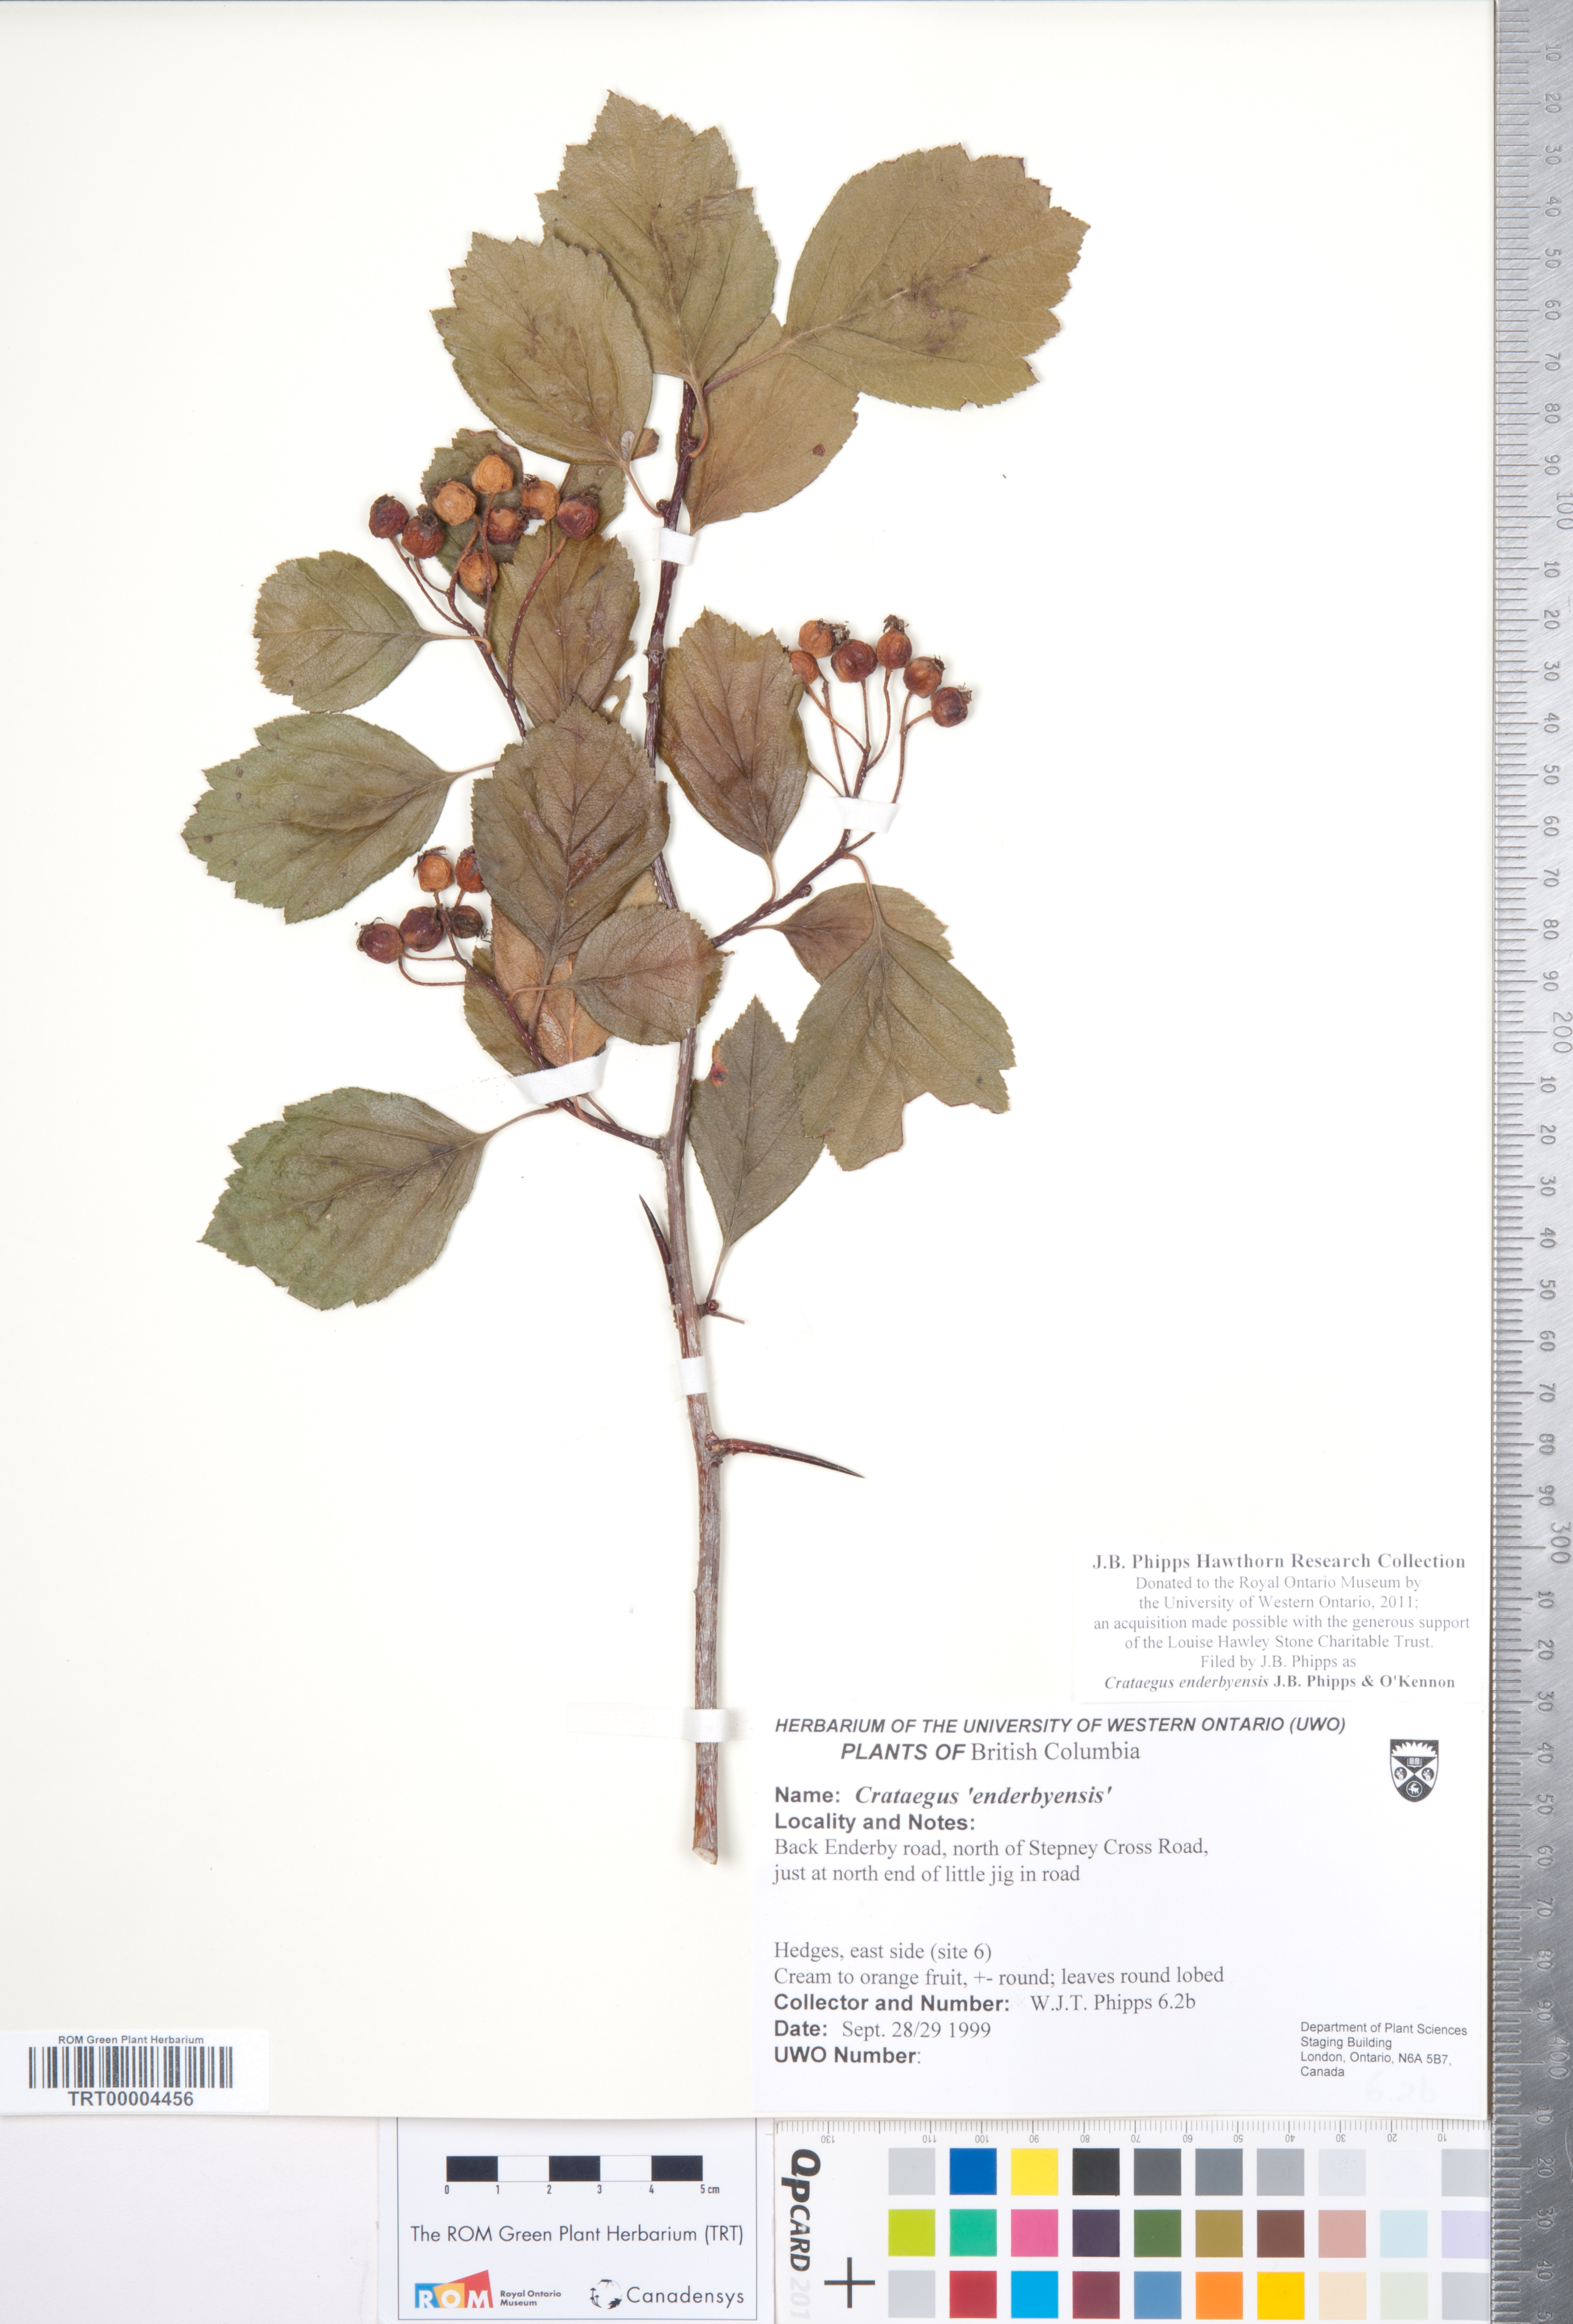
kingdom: Plantae
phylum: Tracheophyta
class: Magnoliopsida
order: Rosales
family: Rosaceae
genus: Crataegus
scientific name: Crataegus enderbyensis
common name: Enderby hawthorn
